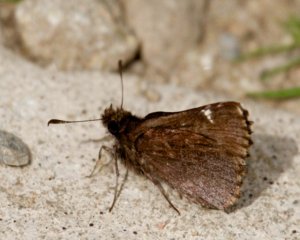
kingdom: Animalia
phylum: Arthropoda
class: Insecta
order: Lepidoptera
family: Hesperiidae
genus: Mastor
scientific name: Mastor vialis
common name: Common Roadside-Skipper
